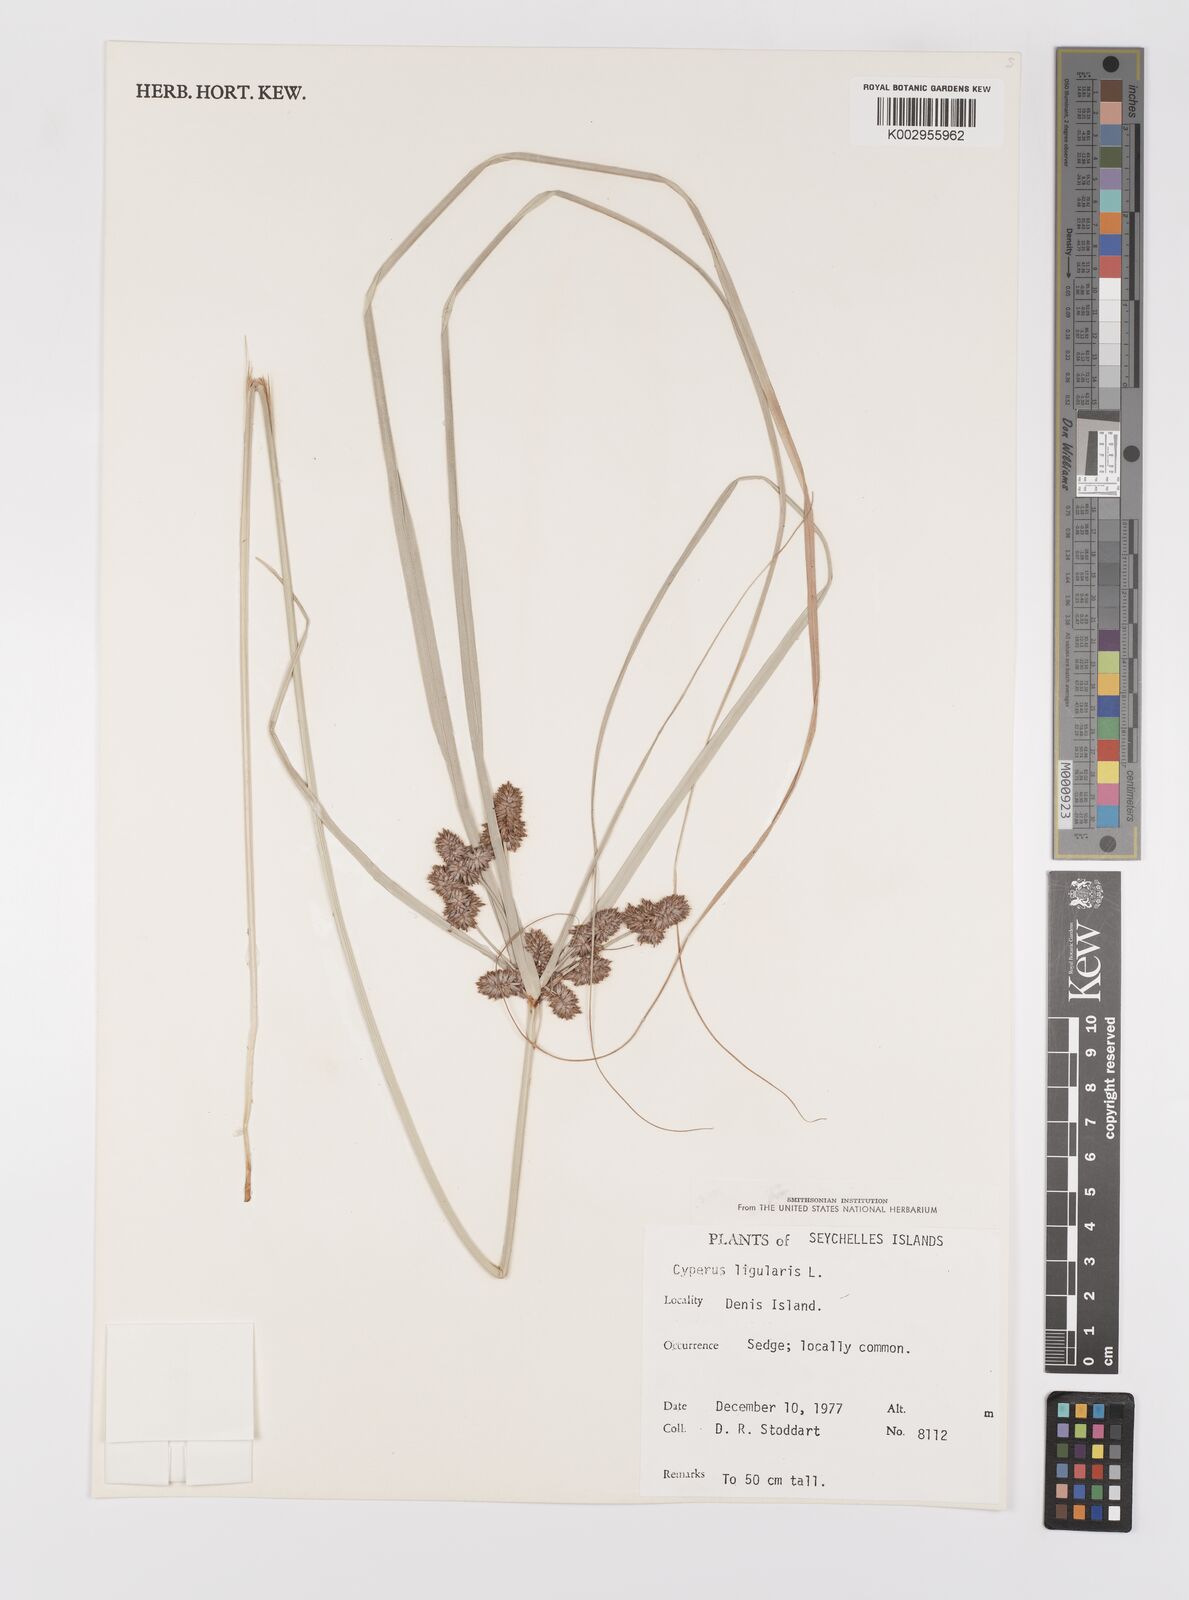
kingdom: Plantae
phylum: Tracheophyta
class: Liliopsida
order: Poales
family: Cyperaceae
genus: Cyperus
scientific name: Cyperus ligularis
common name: Swamp flat sedge
